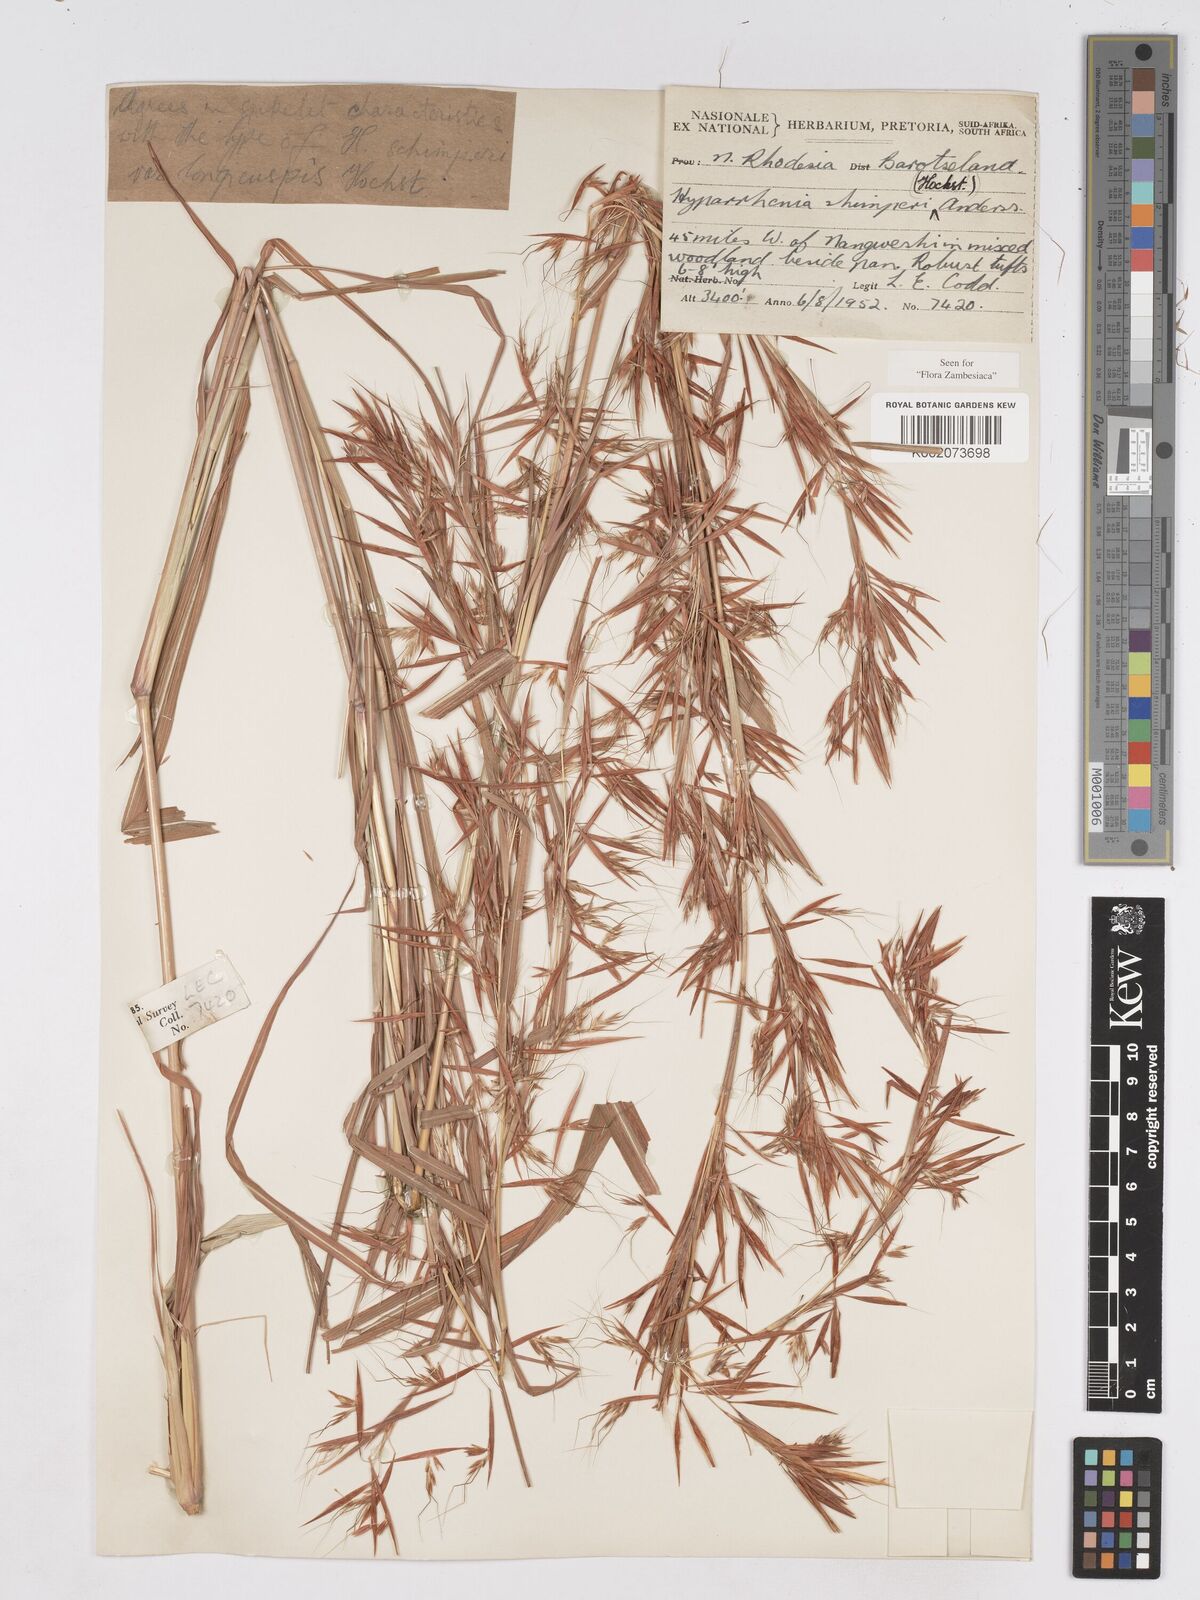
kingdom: Plantae
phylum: Tracheophyta
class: Liliopsida
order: Poales
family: Poaceae
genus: Hyparrhenia
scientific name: Hyparrhenia schimperi
